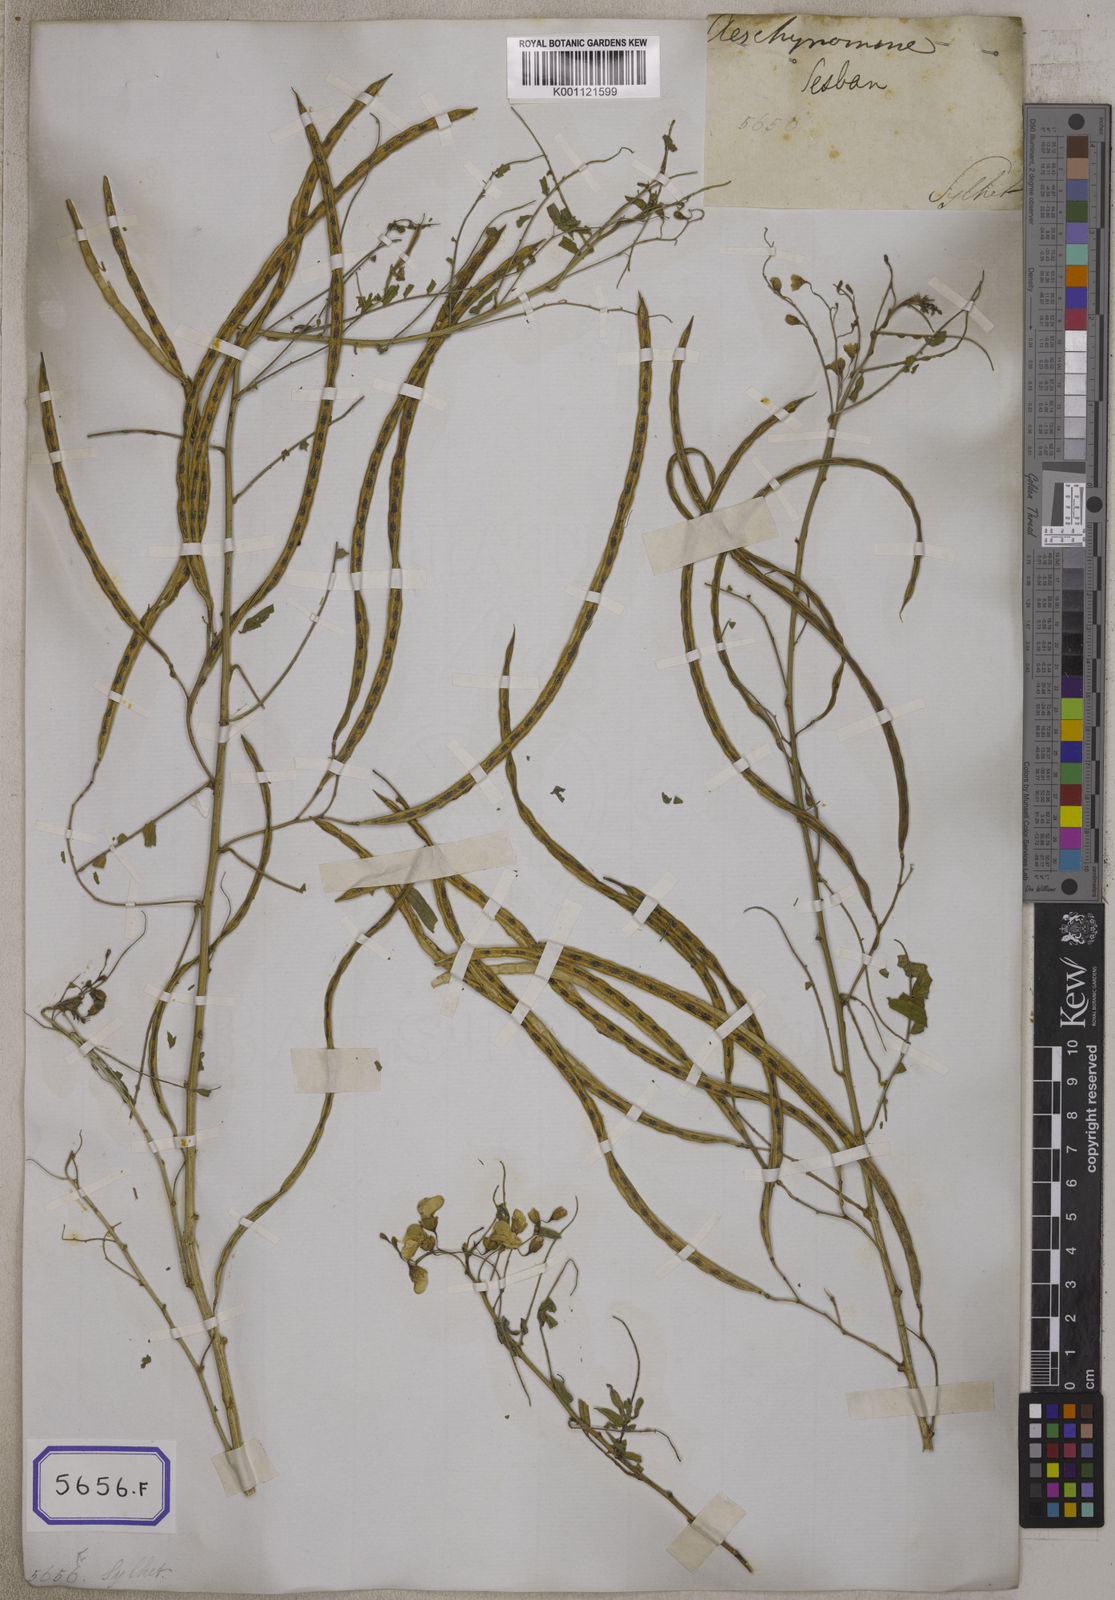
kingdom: Plantae
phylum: Tracheophyta
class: Magnoliopsida
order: Fabales
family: Fabaceae
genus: Sesbania
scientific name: Sesbania
